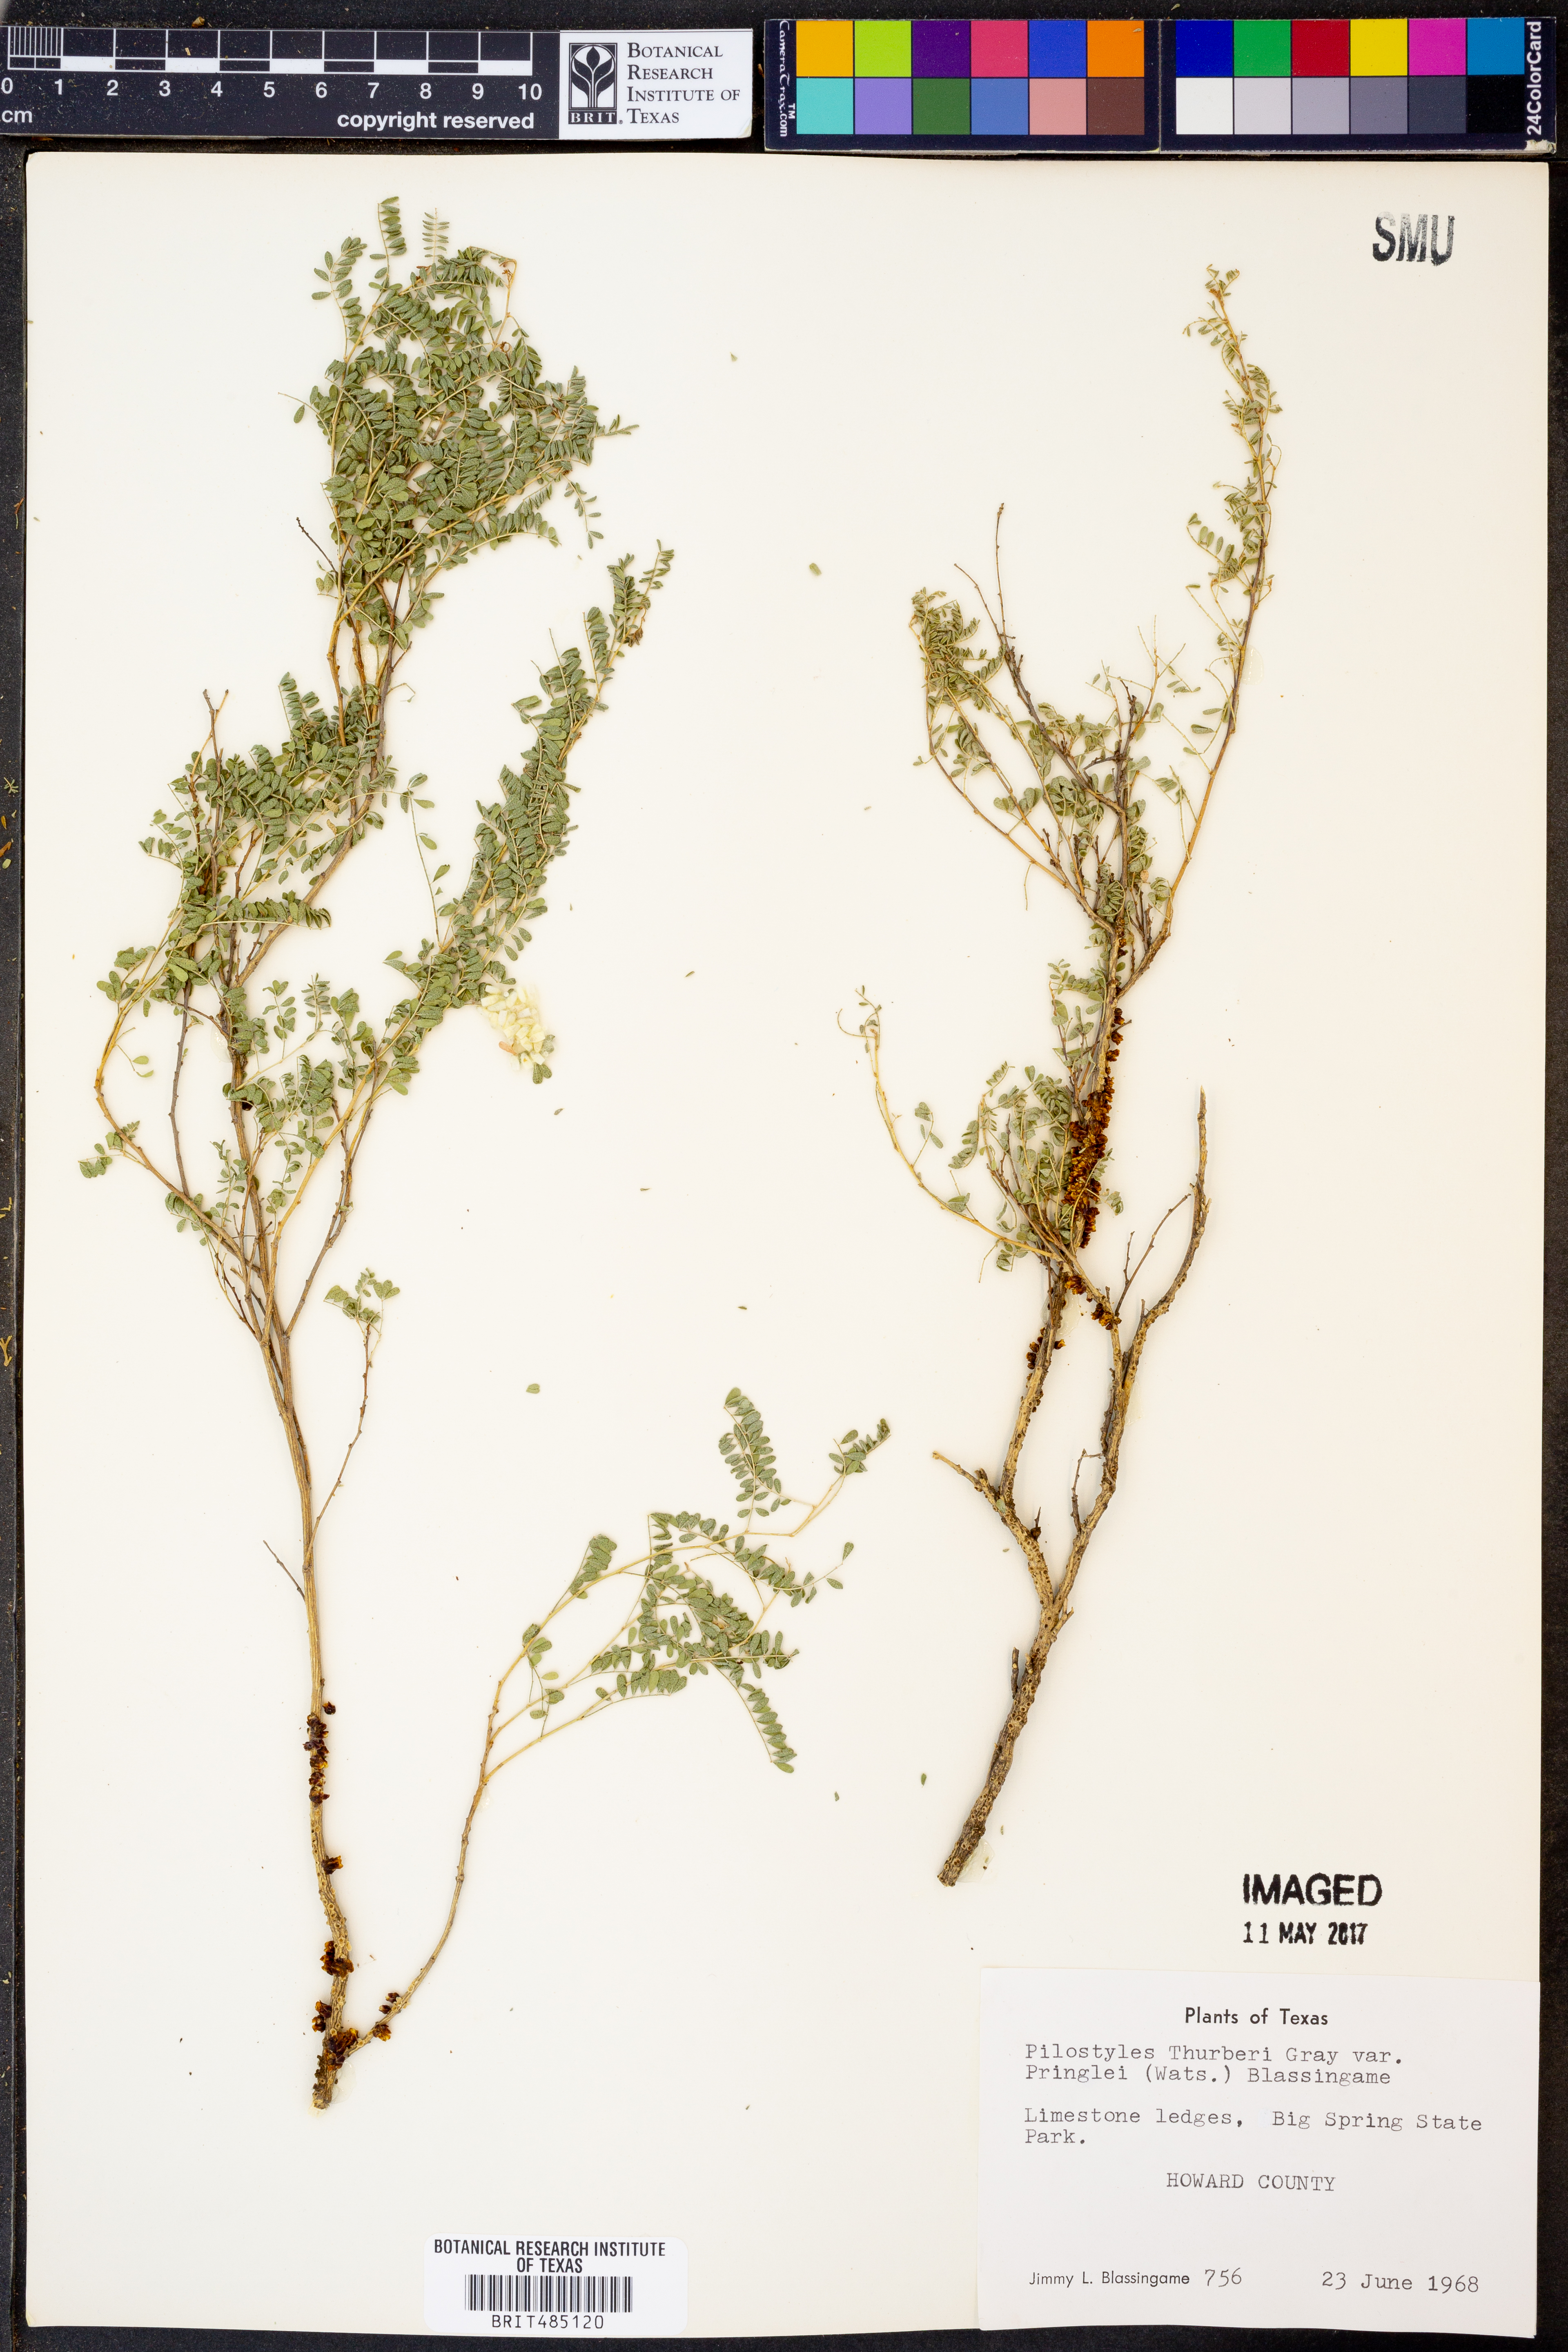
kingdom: Plantae
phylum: Tracheophyta
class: Magnoliopsida
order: Cucurbitales
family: Apodanthaceae
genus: Pilostyles
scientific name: Pilostyles thurberi
